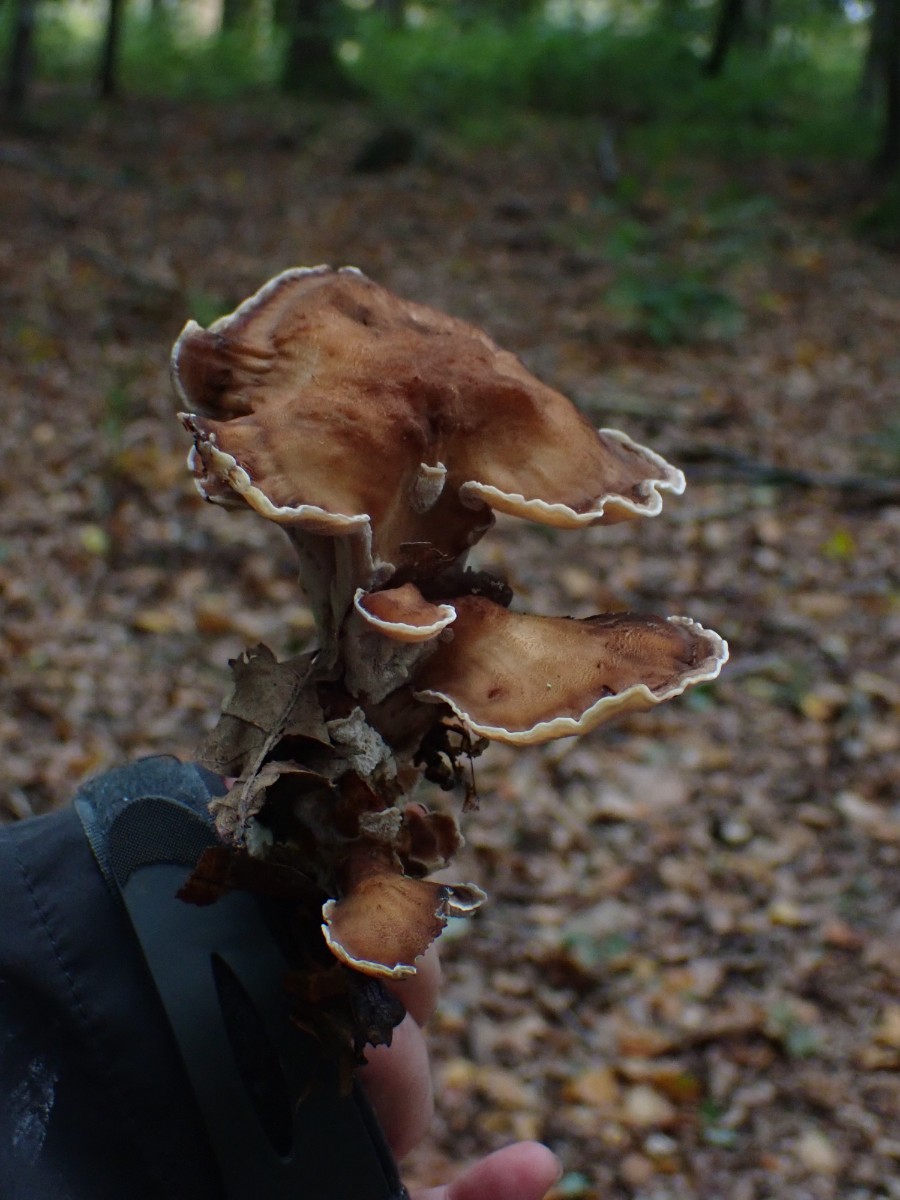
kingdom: Fungi
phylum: Basidiomycota
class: Agaricomycetes
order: Polyporales
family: Meripilaceae
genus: Meripilus
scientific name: Meripilus giganteus
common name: kæmpeporesvamp
